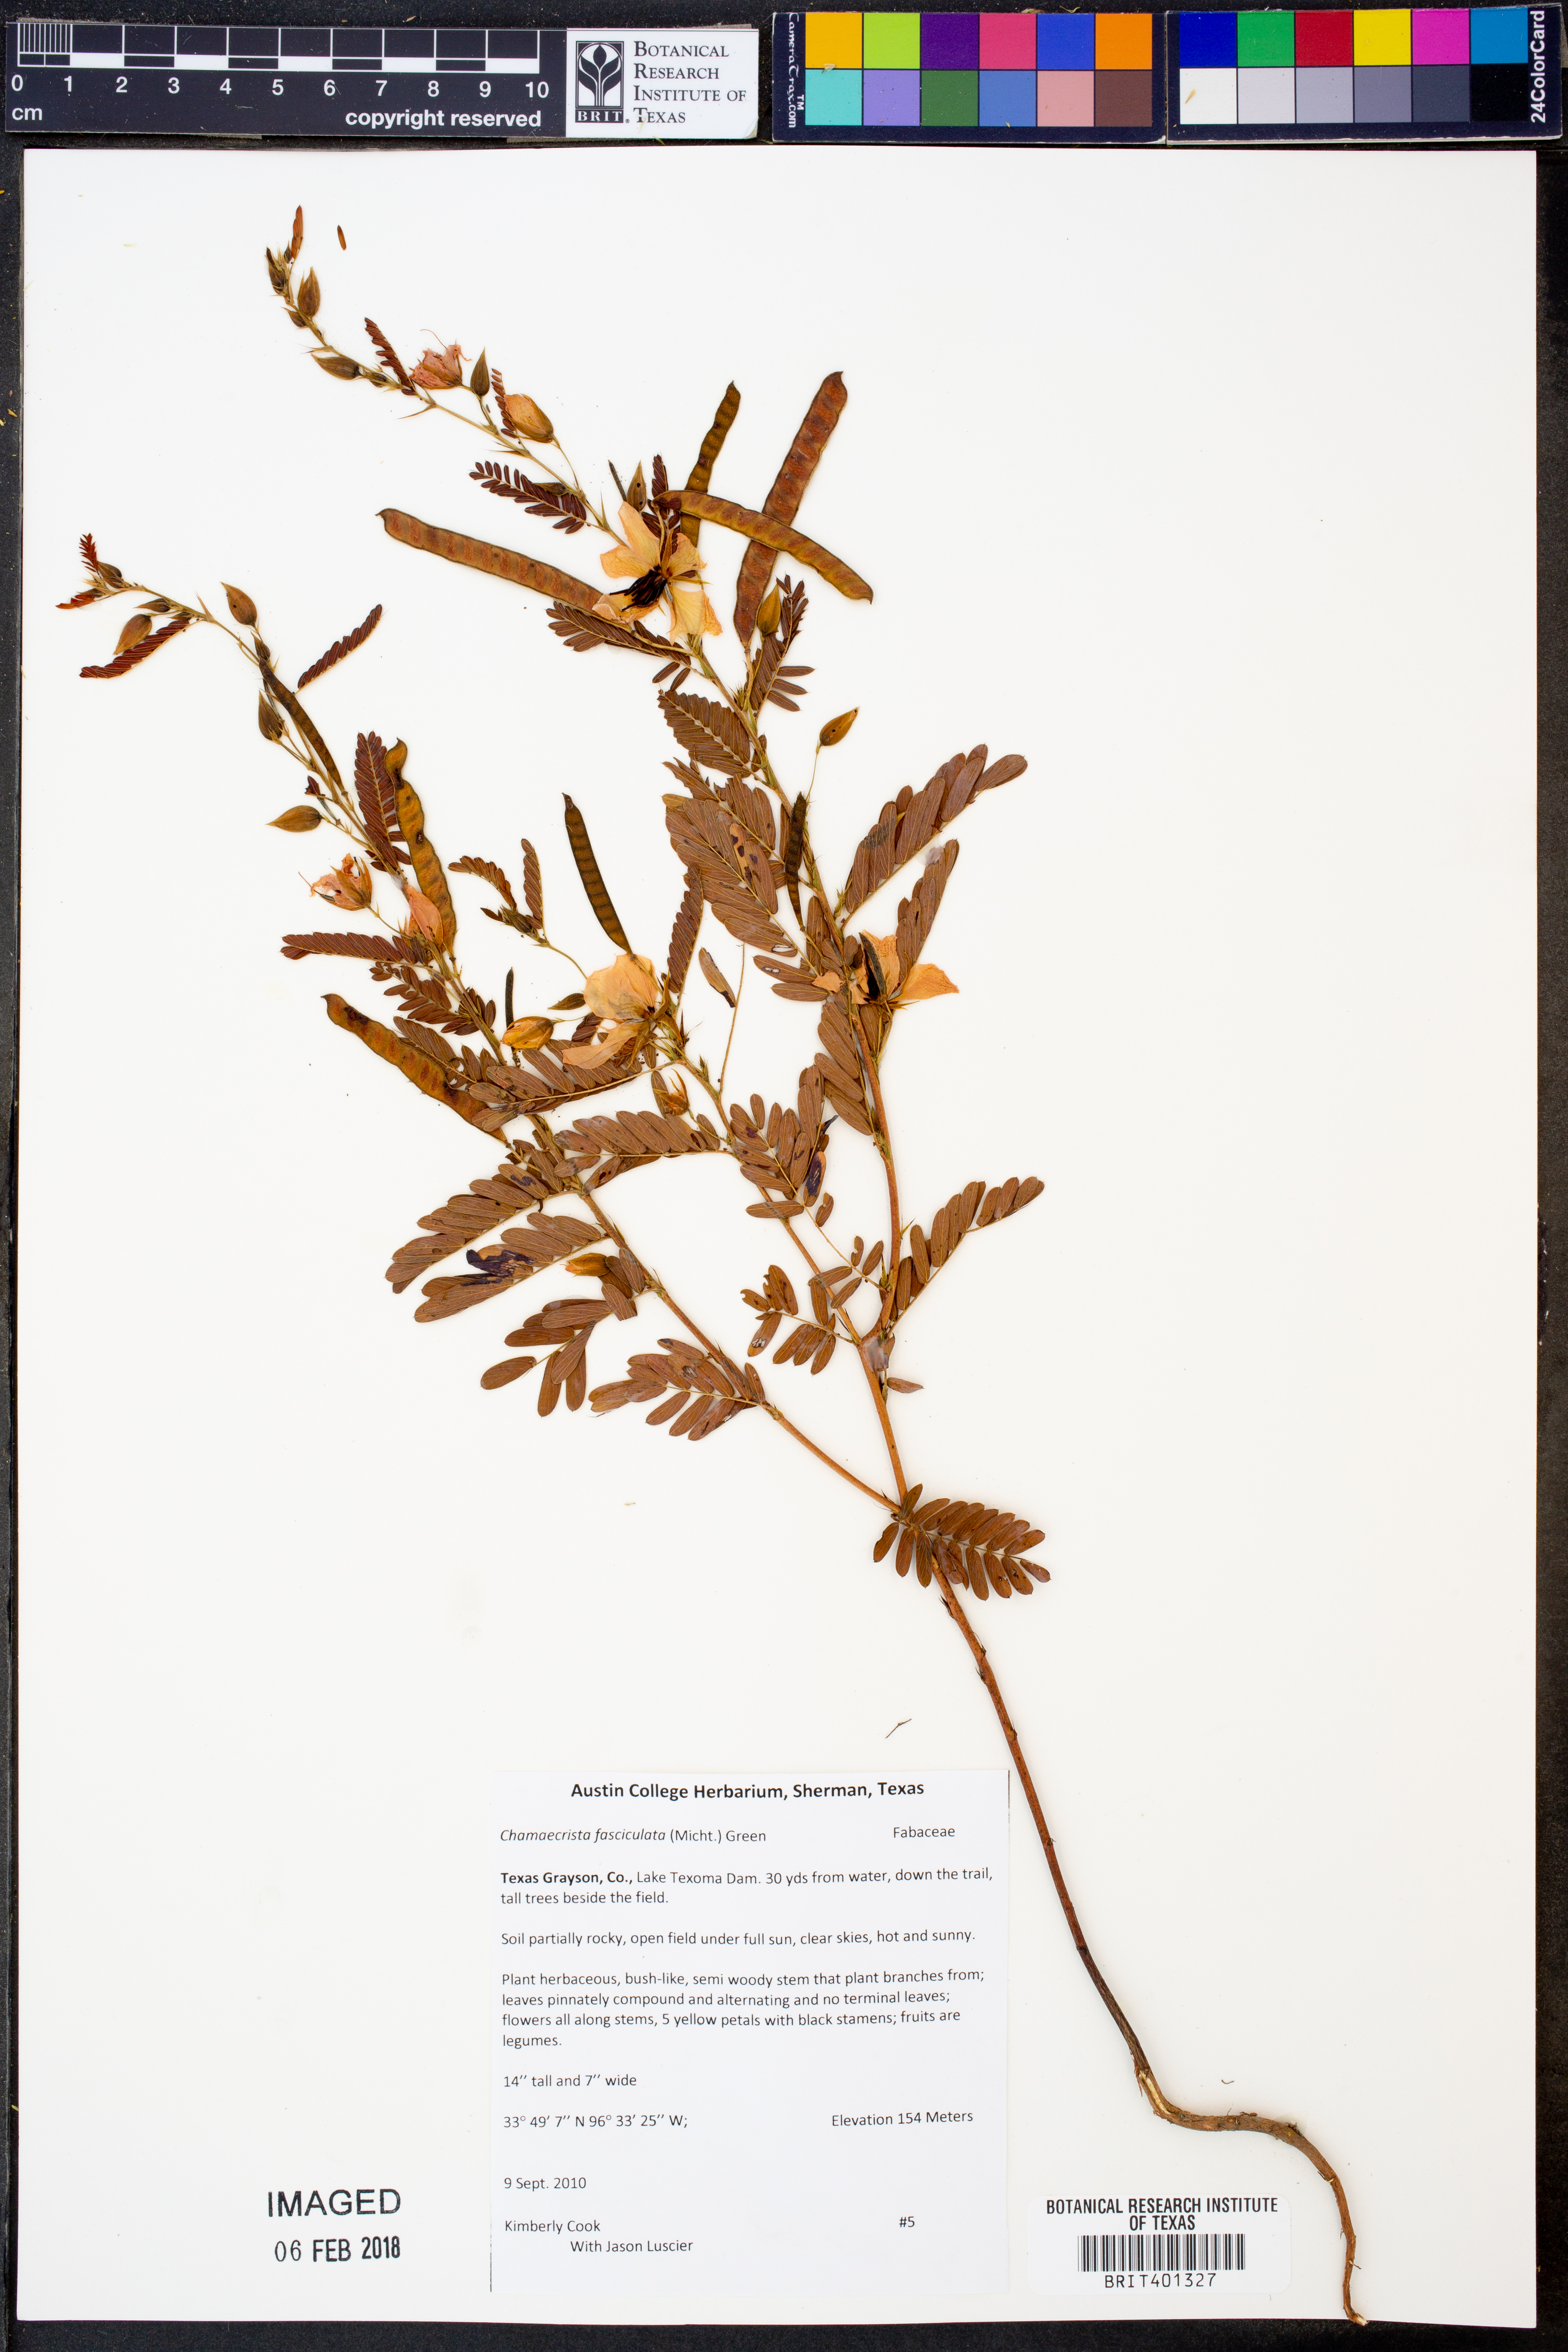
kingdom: Plantae
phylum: Tracheophyta
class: Magnoliopsida
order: Fabales
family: Fabaceae
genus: Chamaecrista
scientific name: Chamaecrista fasciculata
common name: Golden cassia
